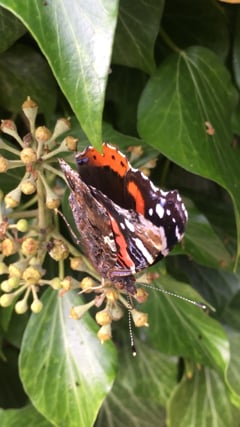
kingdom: Animalia
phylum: Arthropoda
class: Insecta
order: Lepidoptera
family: Nymphalidae
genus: Vanessa
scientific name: Vanessa atalanta
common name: Red admiral
